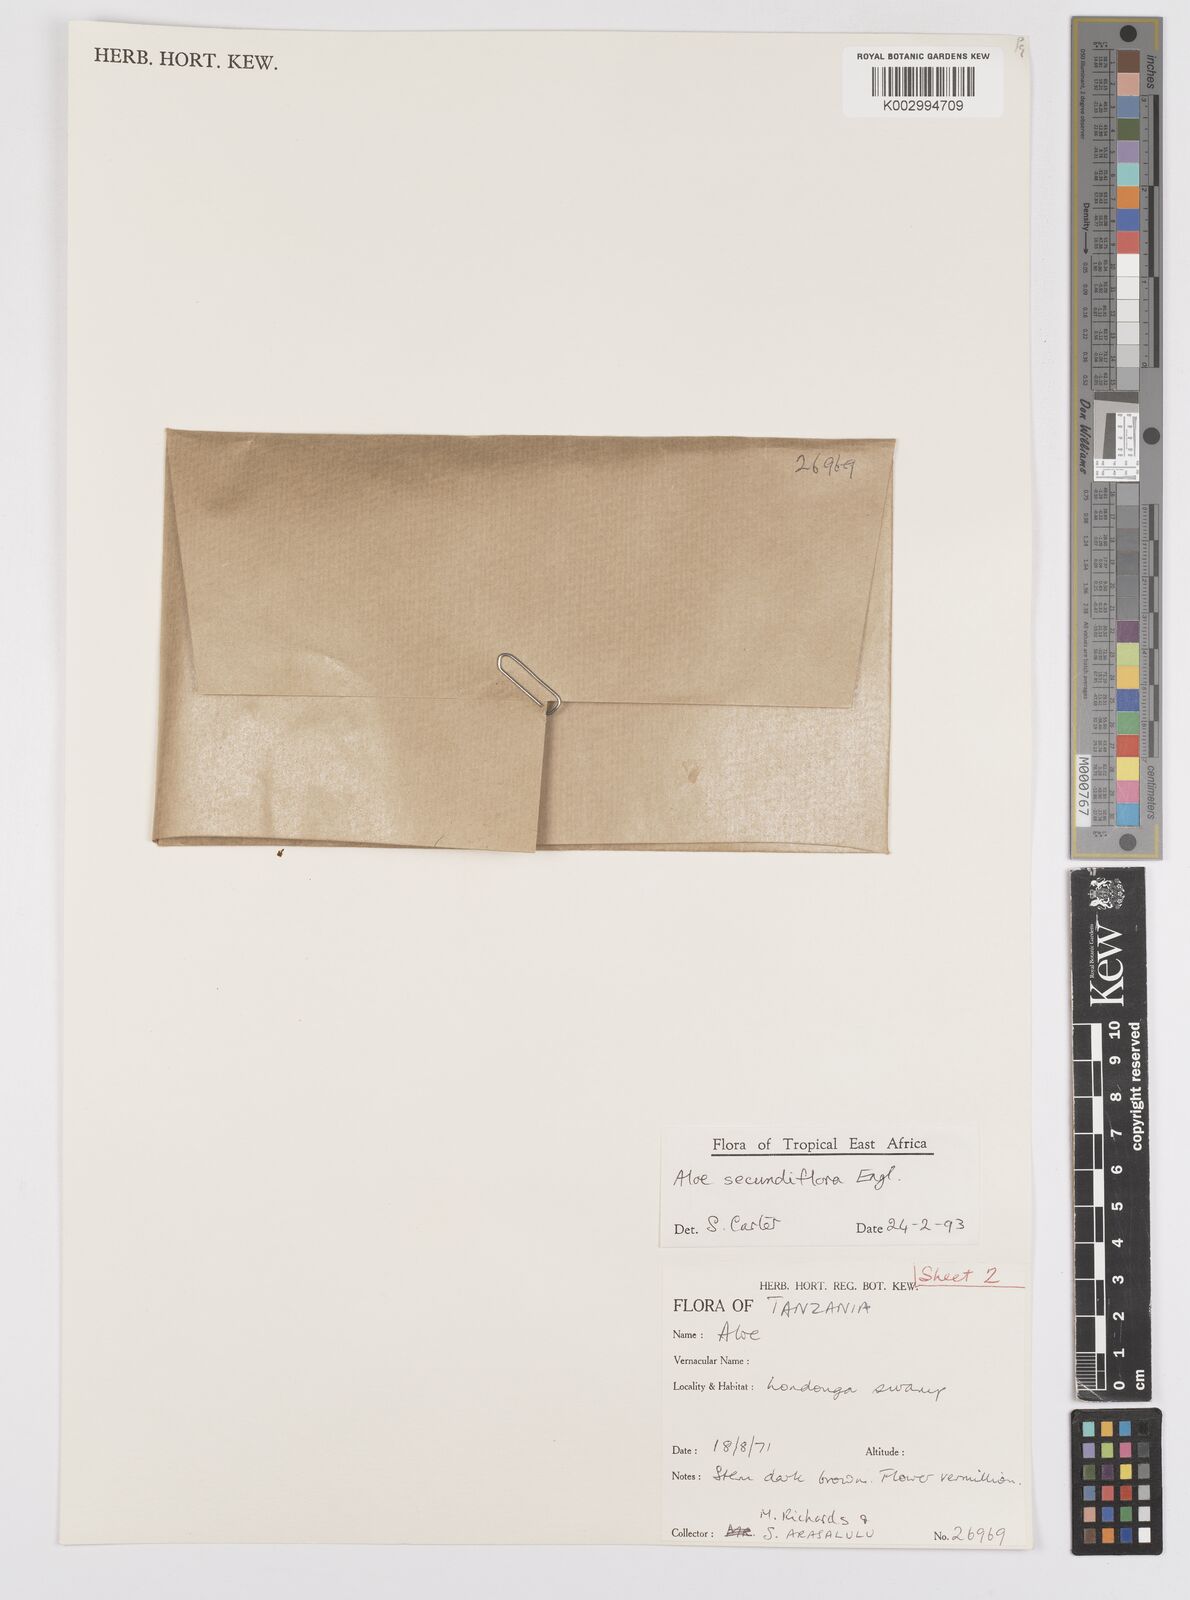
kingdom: Plantae
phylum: Tracheophyta
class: Liliopsida
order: Asparagales
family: Asphodelaceae
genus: Aloe
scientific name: Aloe secundiflora
